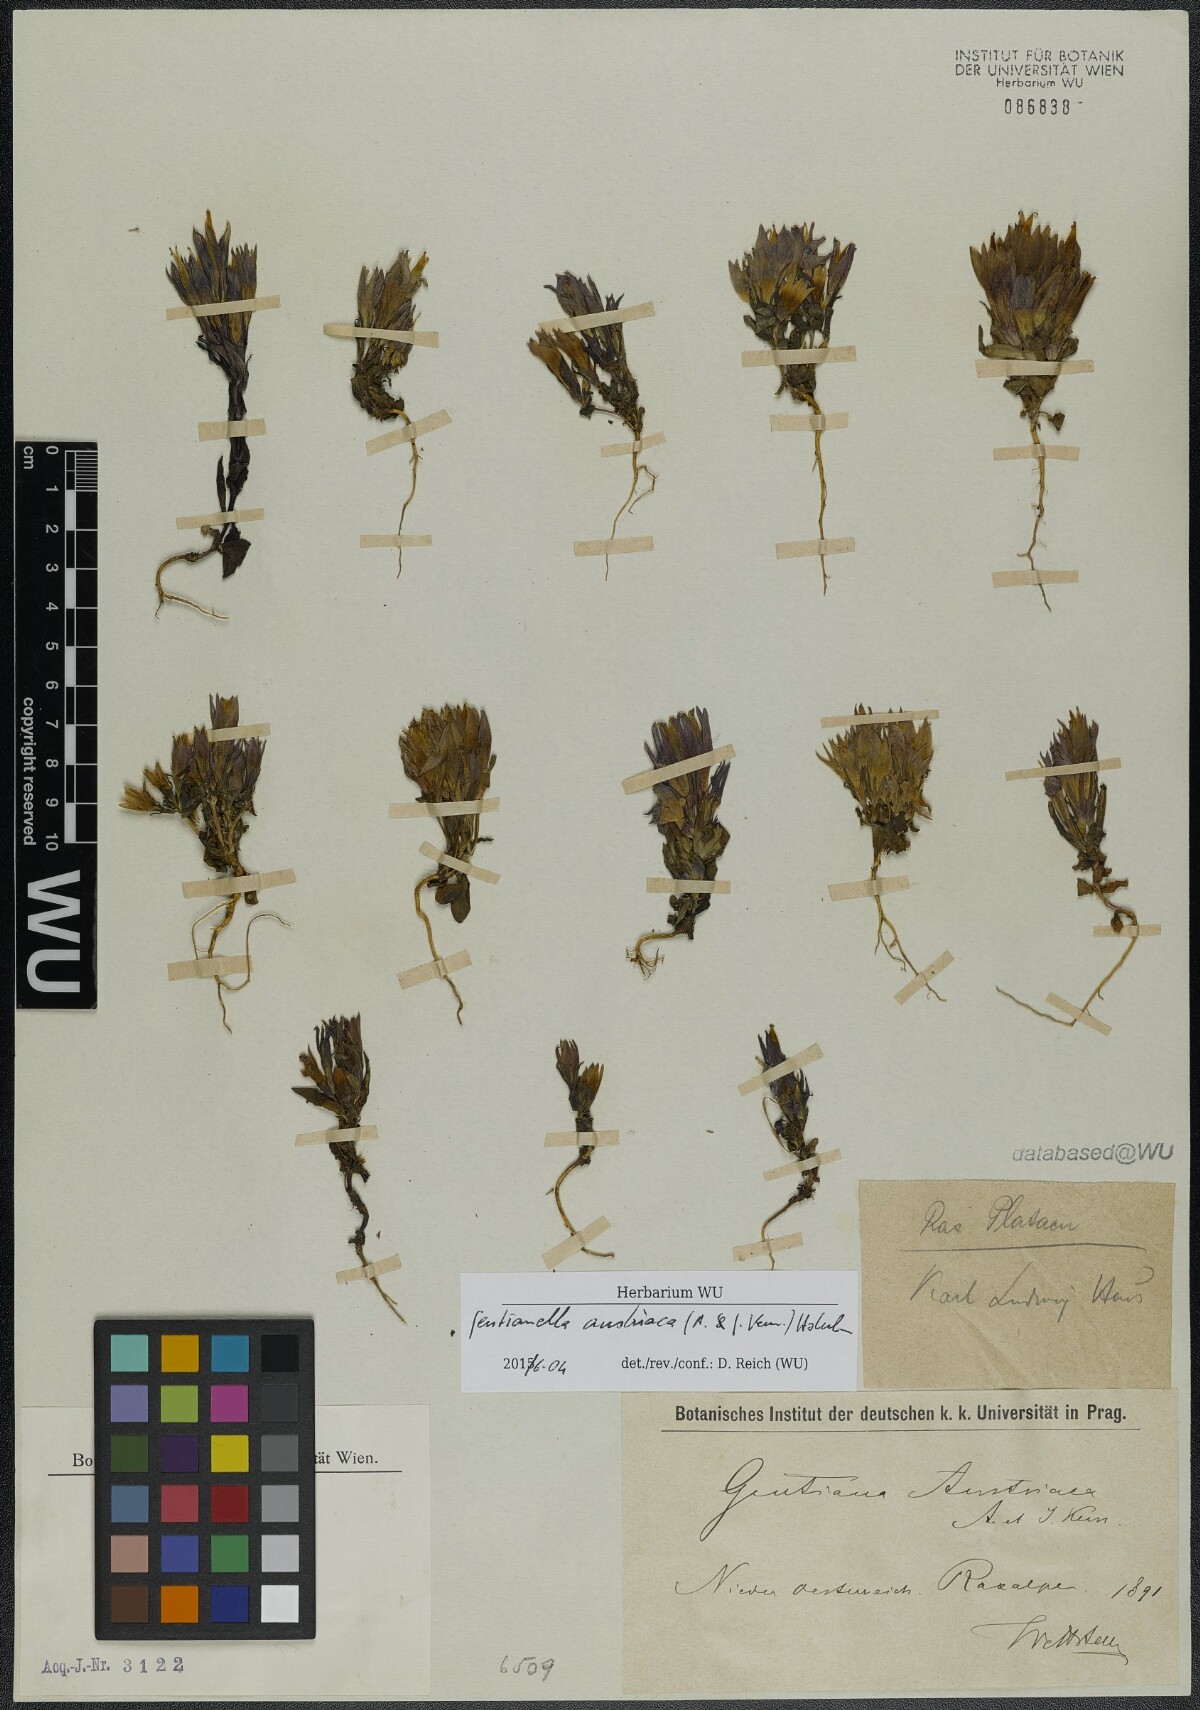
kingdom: Plantae
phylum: Tracheophyta
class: Magnoliopsida
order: Gentianales
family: Gentianaceae
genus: Gentianella
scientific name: Gentianella austriaca
